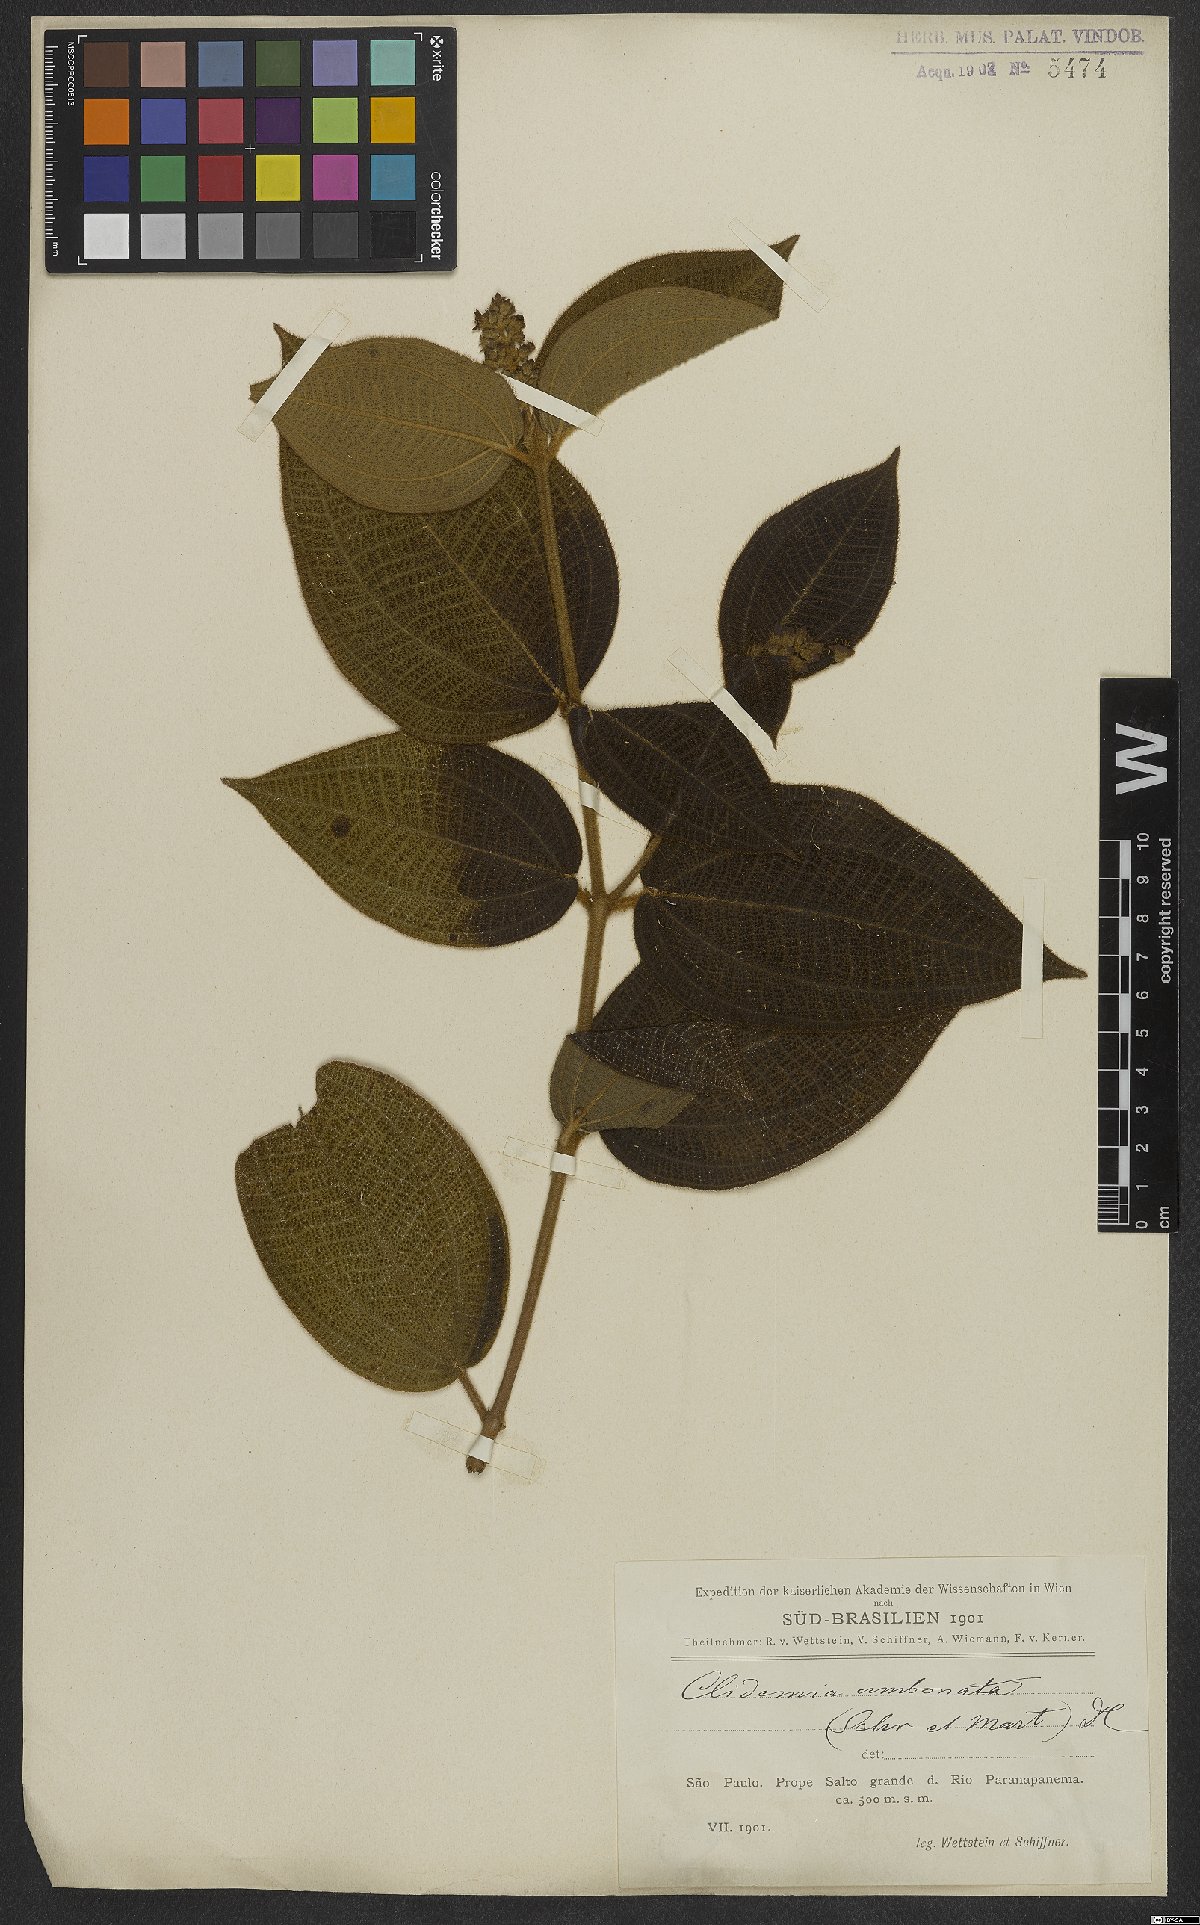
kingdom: Plantae
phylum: Tracheophyta
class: Magnoliopsida
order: Myrtales
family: Melastomataceae
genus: Miconia
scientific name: Miconia strigillosa
